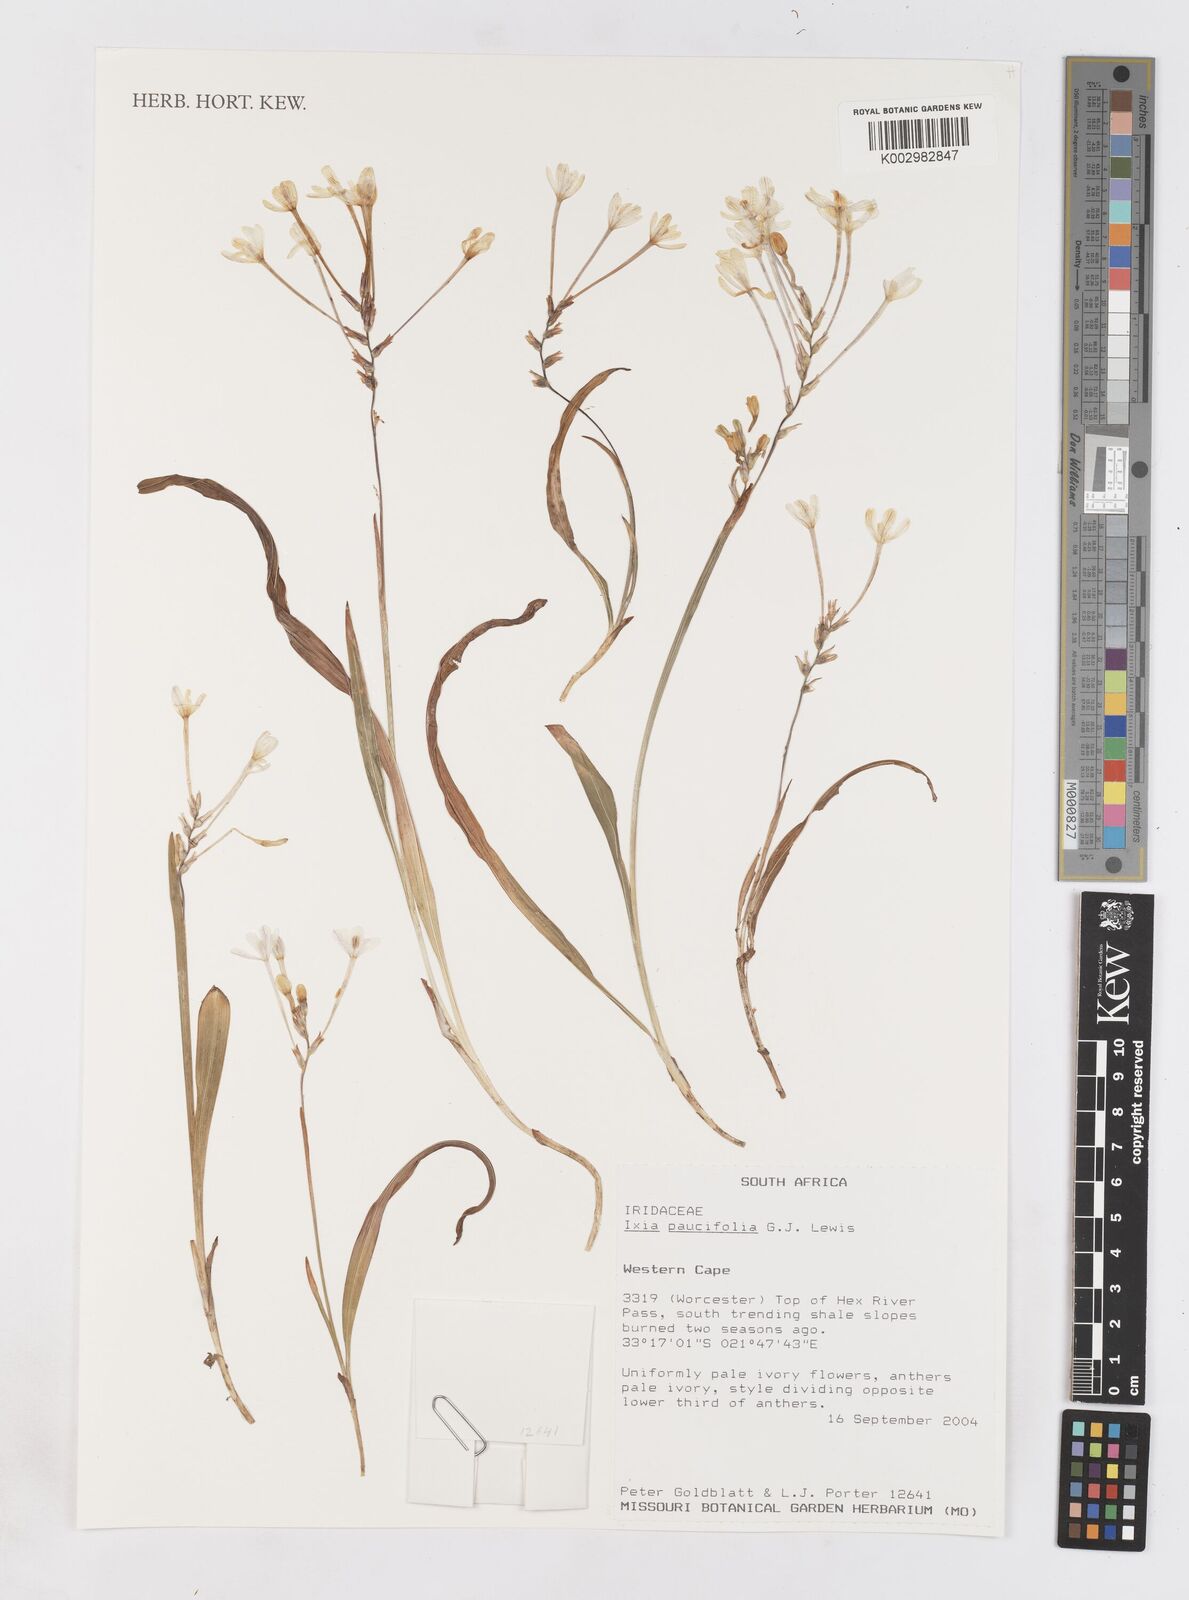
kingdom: Plantae
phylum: Tracheophyta
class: Liliopsida
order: Asparagales
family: Iridaceae
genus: Ixia
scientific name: Ixia paucifolia
